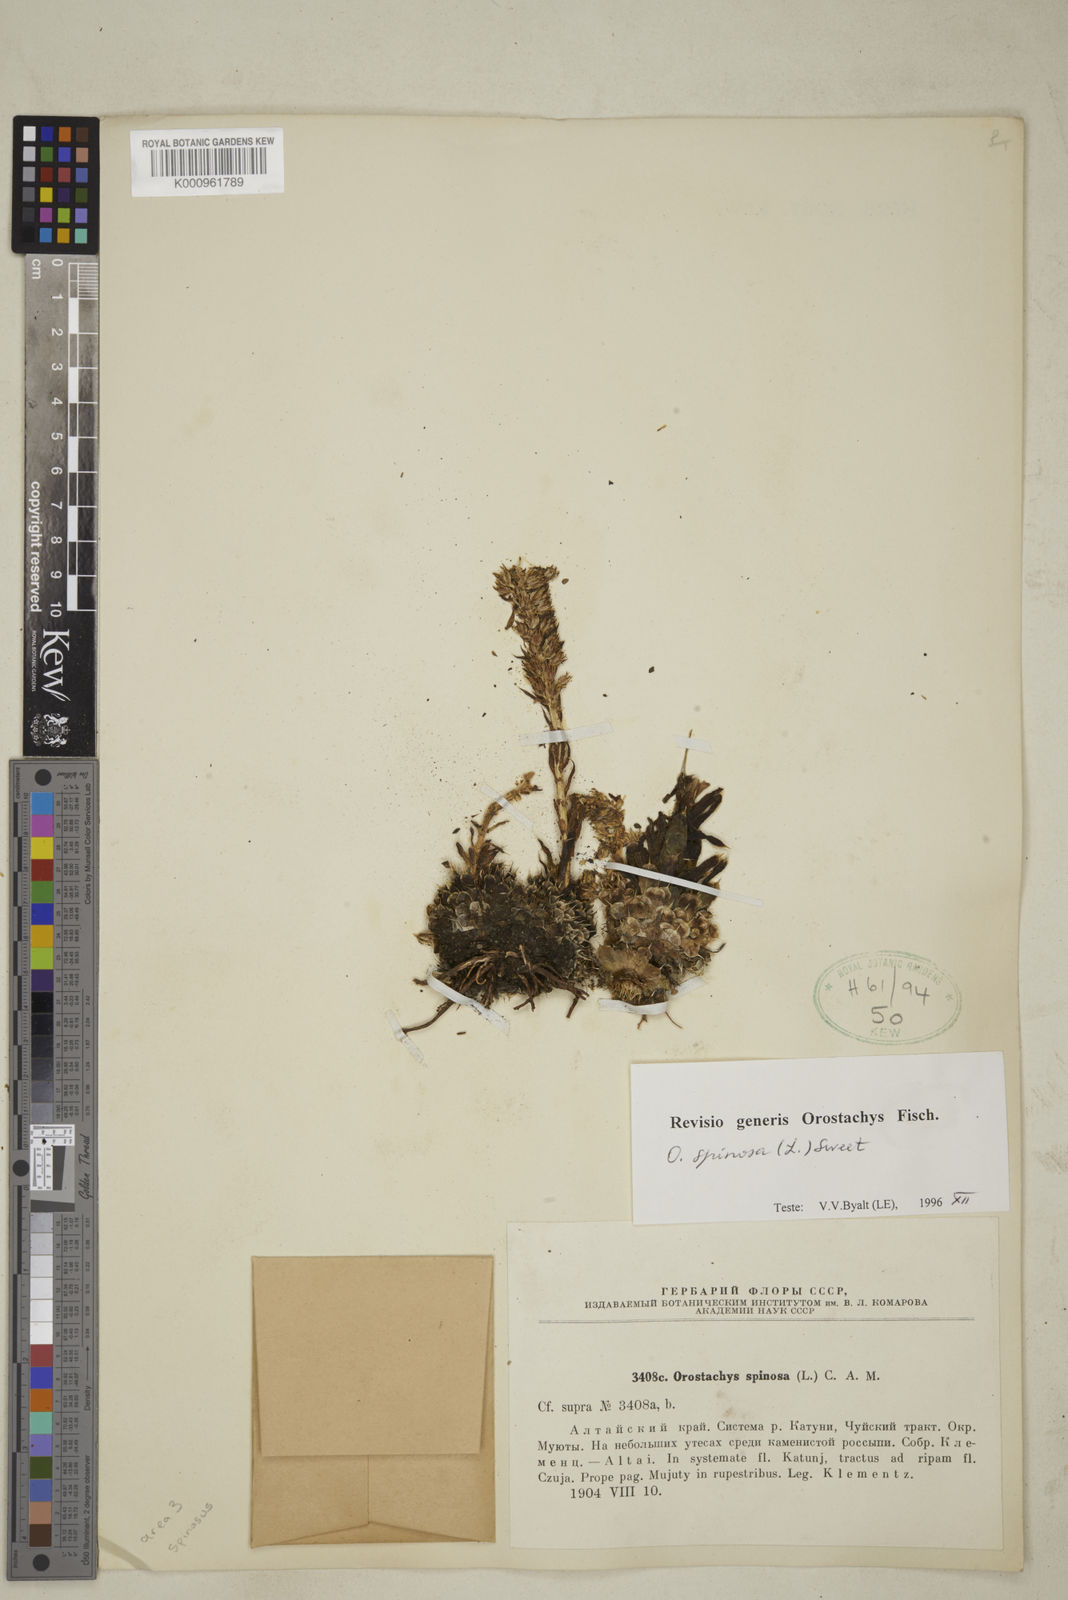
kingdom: Plantae
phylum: Tracheophyta
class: Magnoliopsida
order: Saxifragales
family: Crassulaceae
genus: Orostachys
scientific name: Orostachys spinosa
